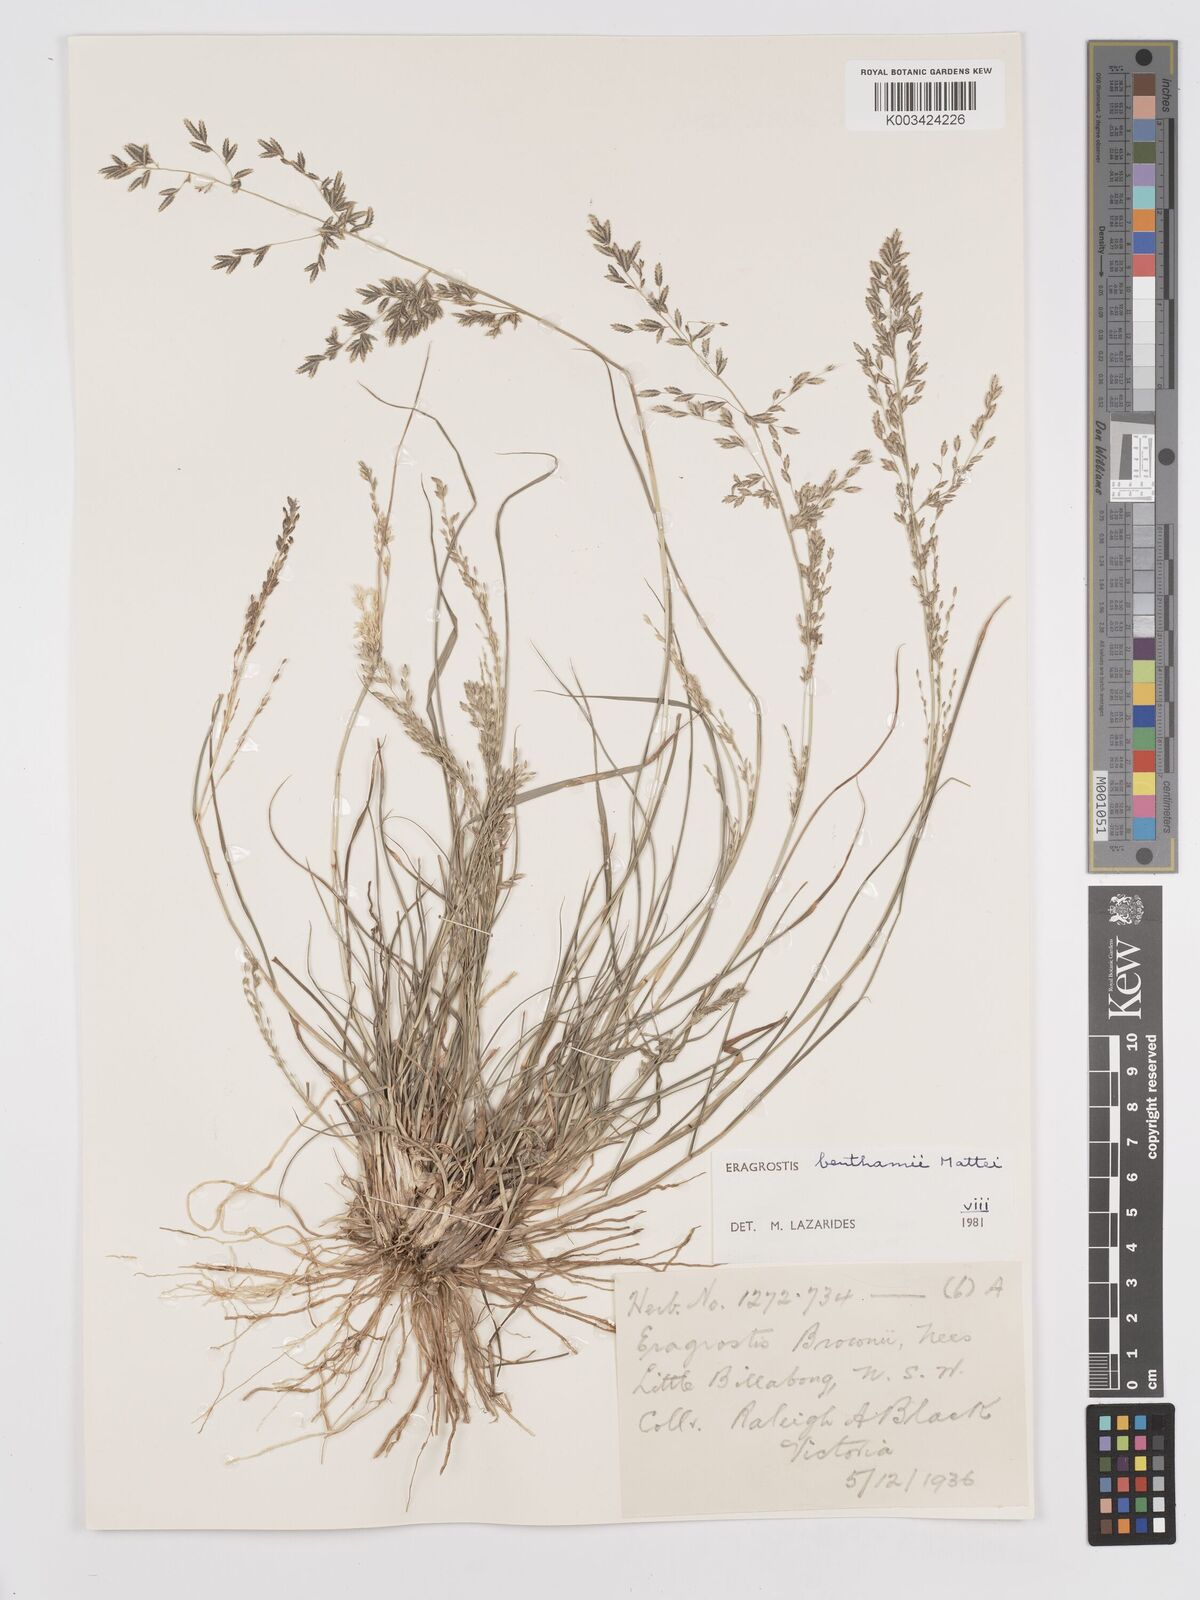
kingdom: Plantae
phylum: Tracheophyta
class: Liliopsida
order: Poales
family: Poaceae
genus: Eragrostis
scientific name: Eragrostis brownii
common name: Lovegrass
